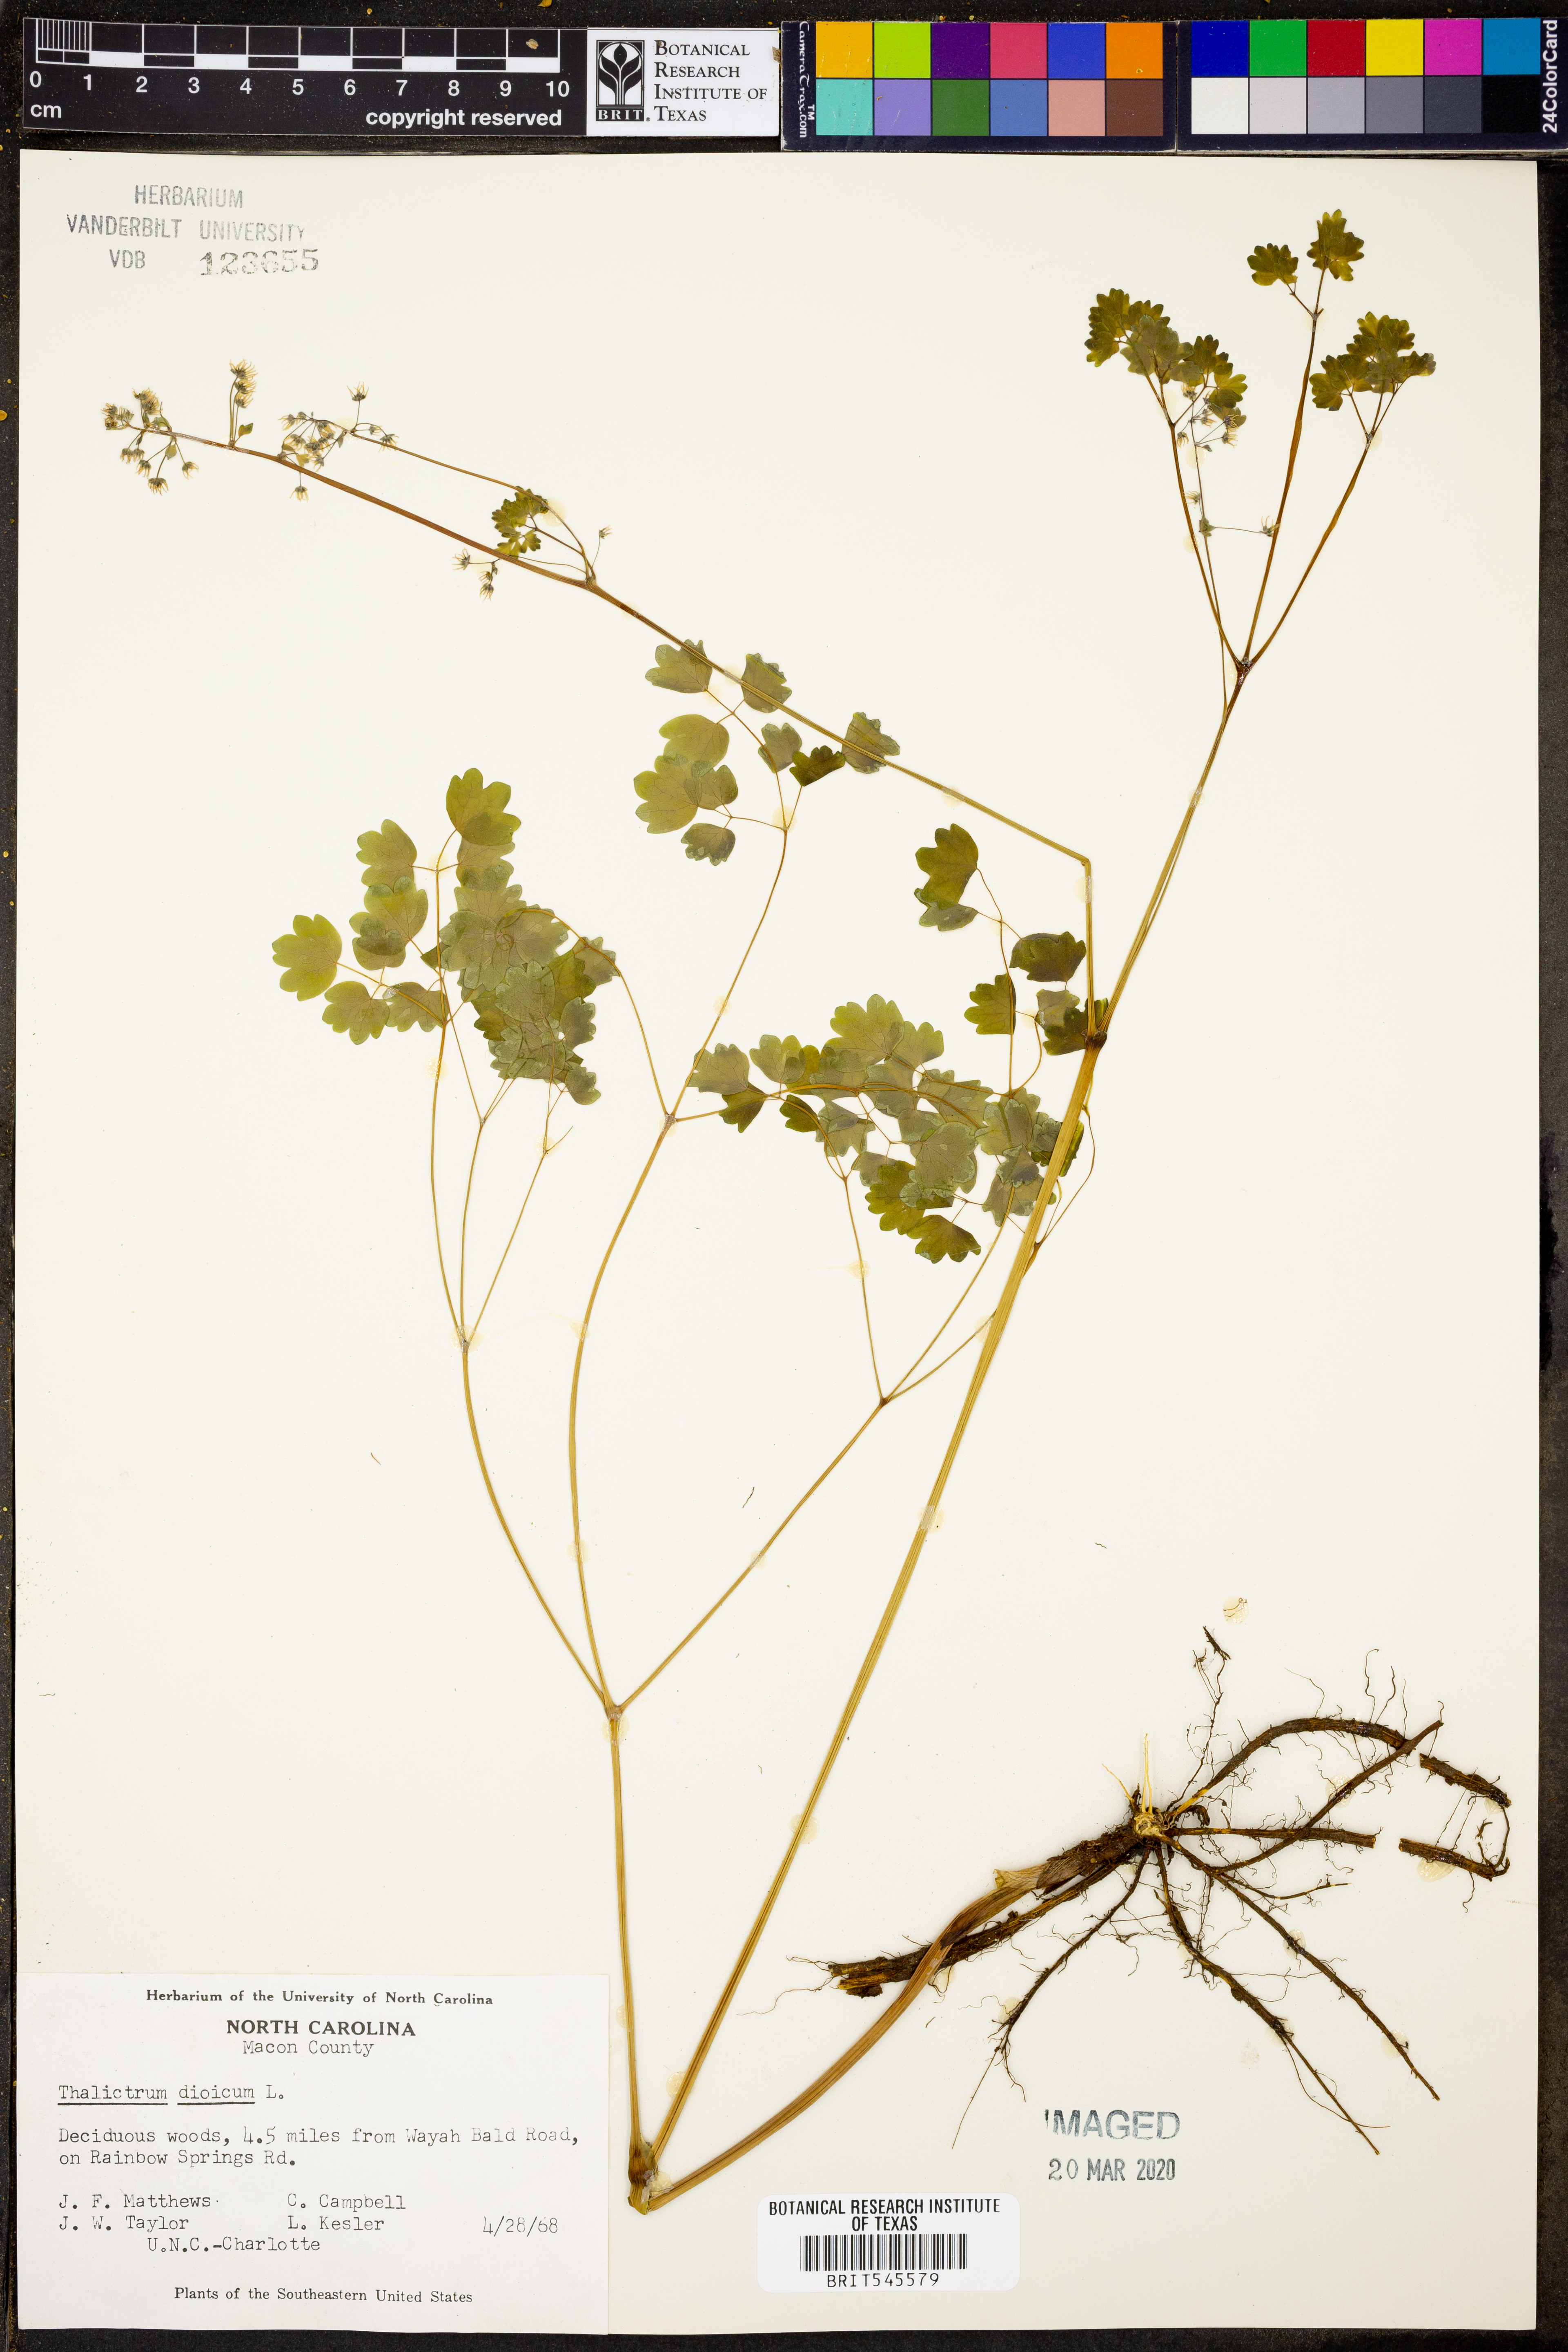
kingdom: Plantae
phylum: Tracheophyta
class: Magnoliopsida
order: Ranunculales
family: Ranunculaceae
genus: Thalictrum
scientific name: Thalictrum dioicum
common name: Early meadow-rue
